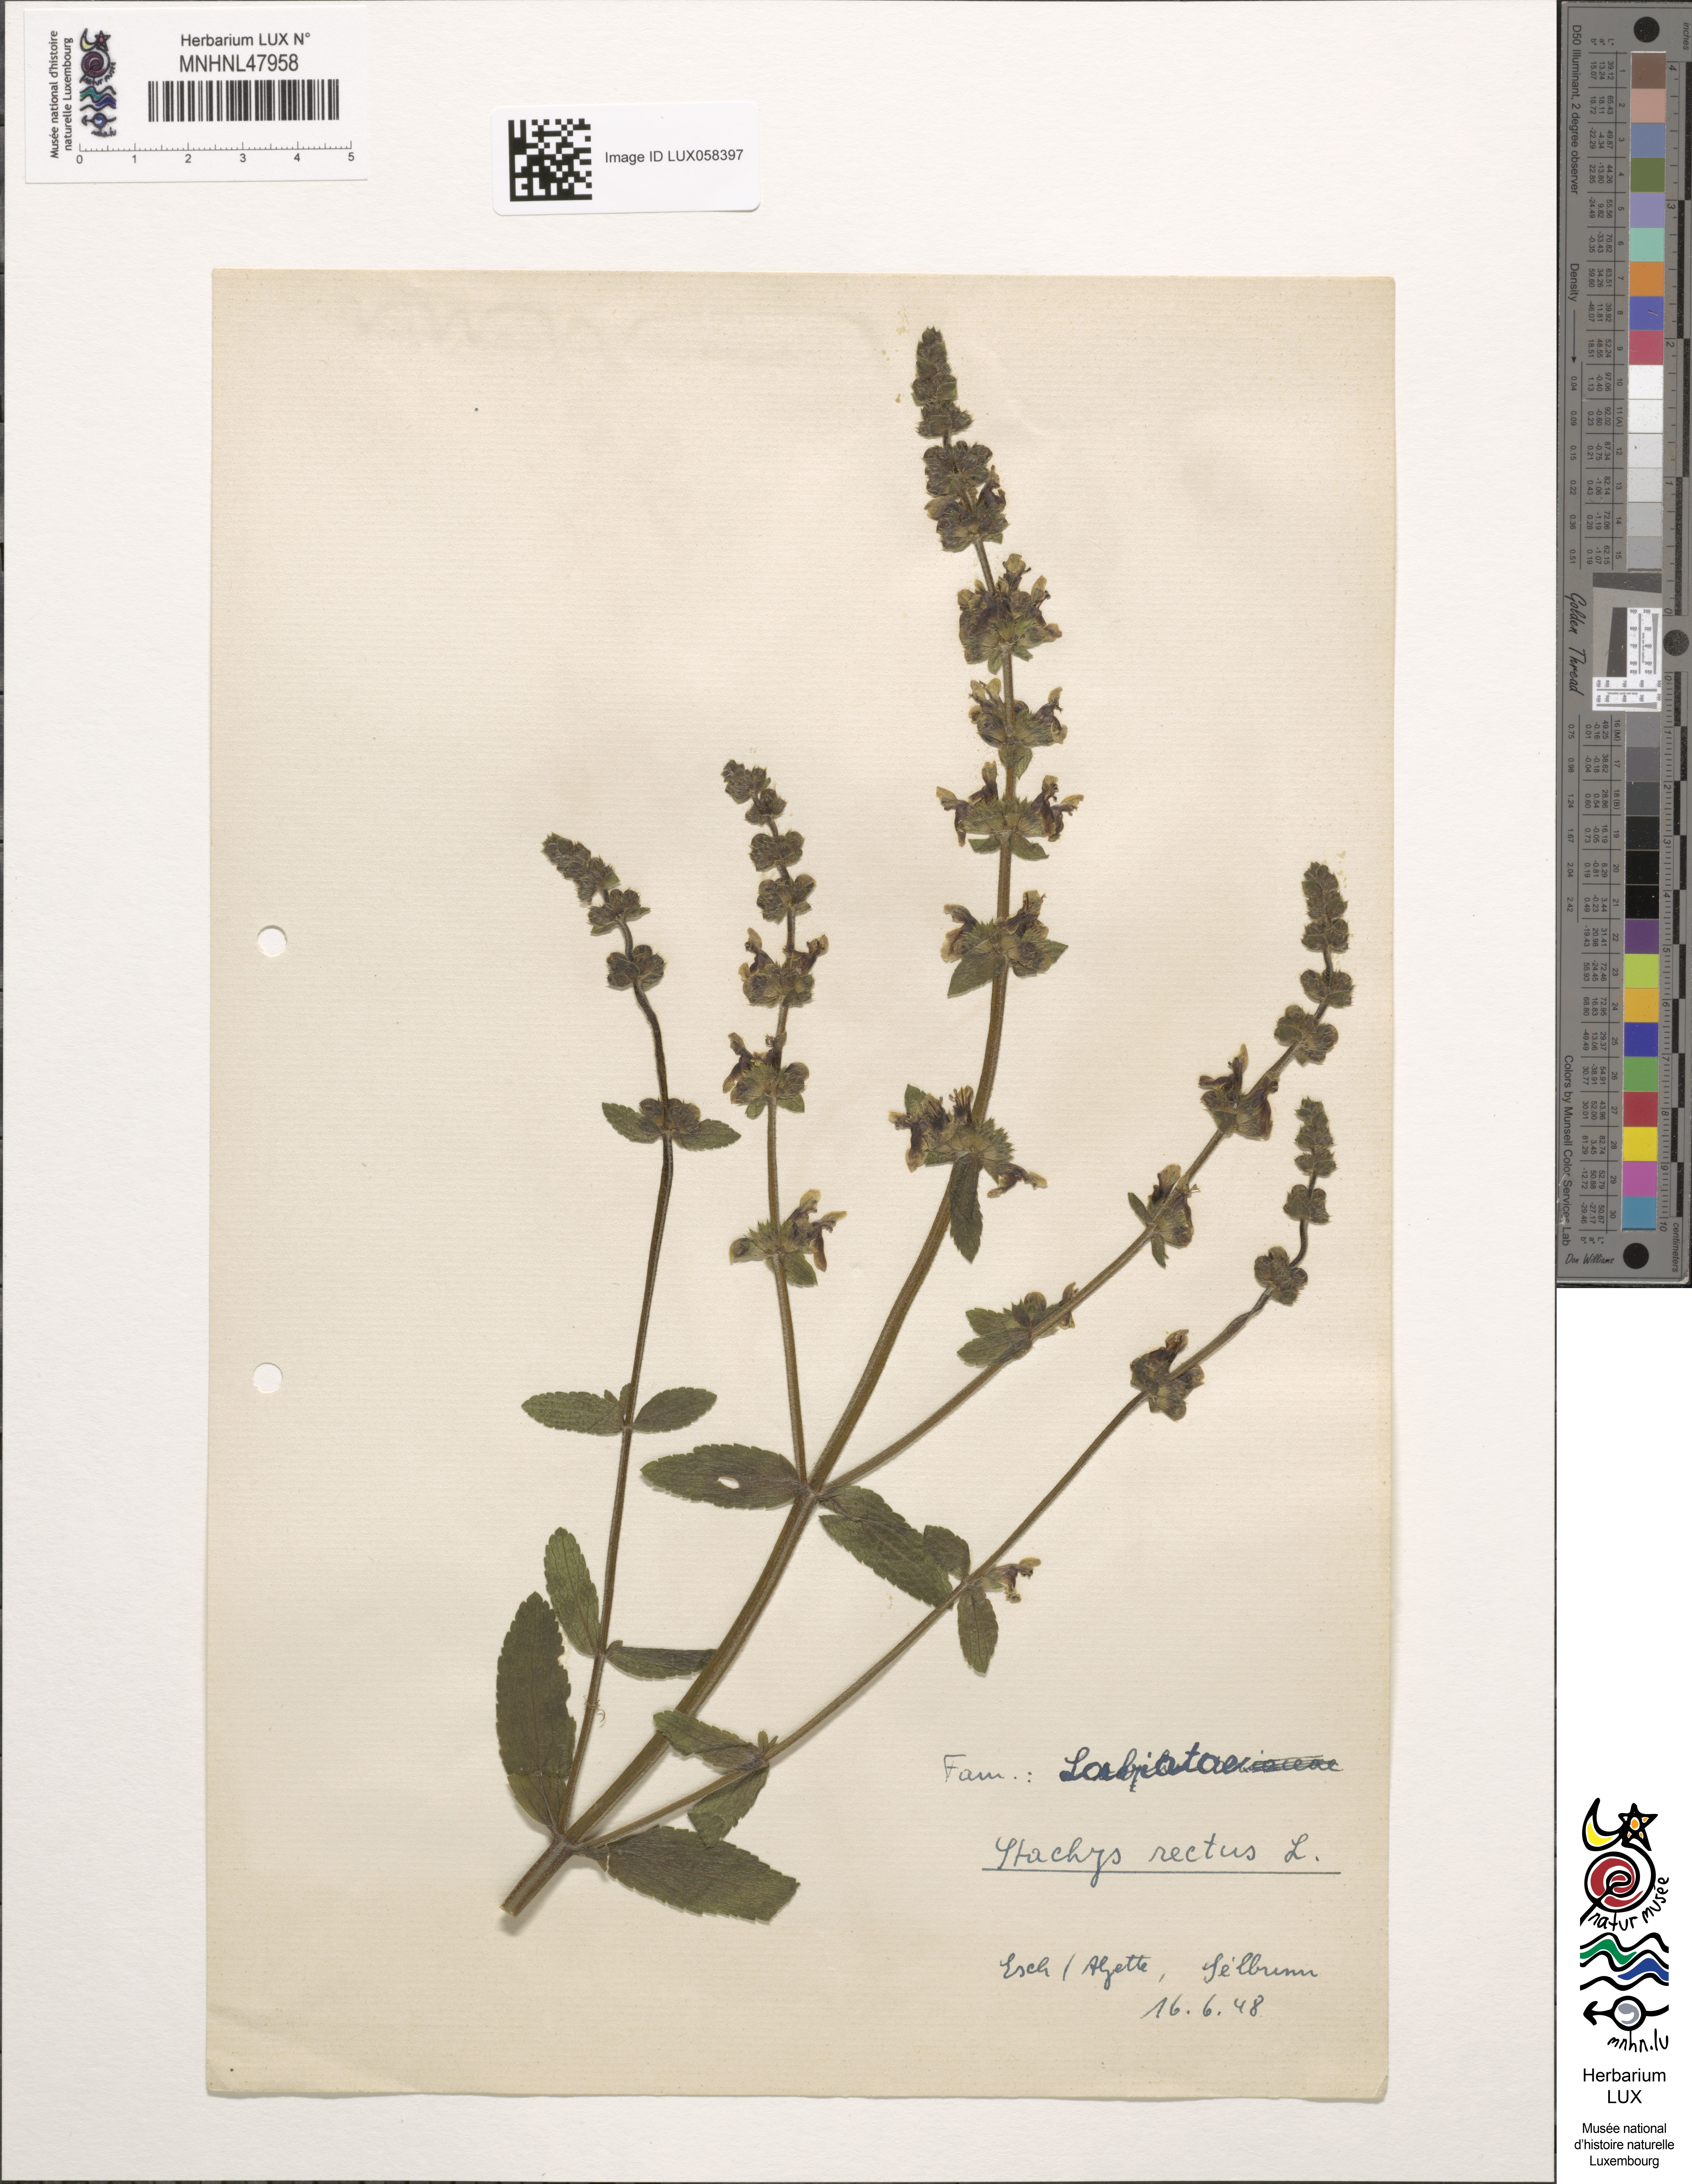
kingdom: Plantae
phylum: Tracheophyta
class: Magnoliopsida
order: Lamiales
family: Lamiaceae
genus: Stachys
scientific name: Stachys recta
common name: Perennial yellow-woundwort
